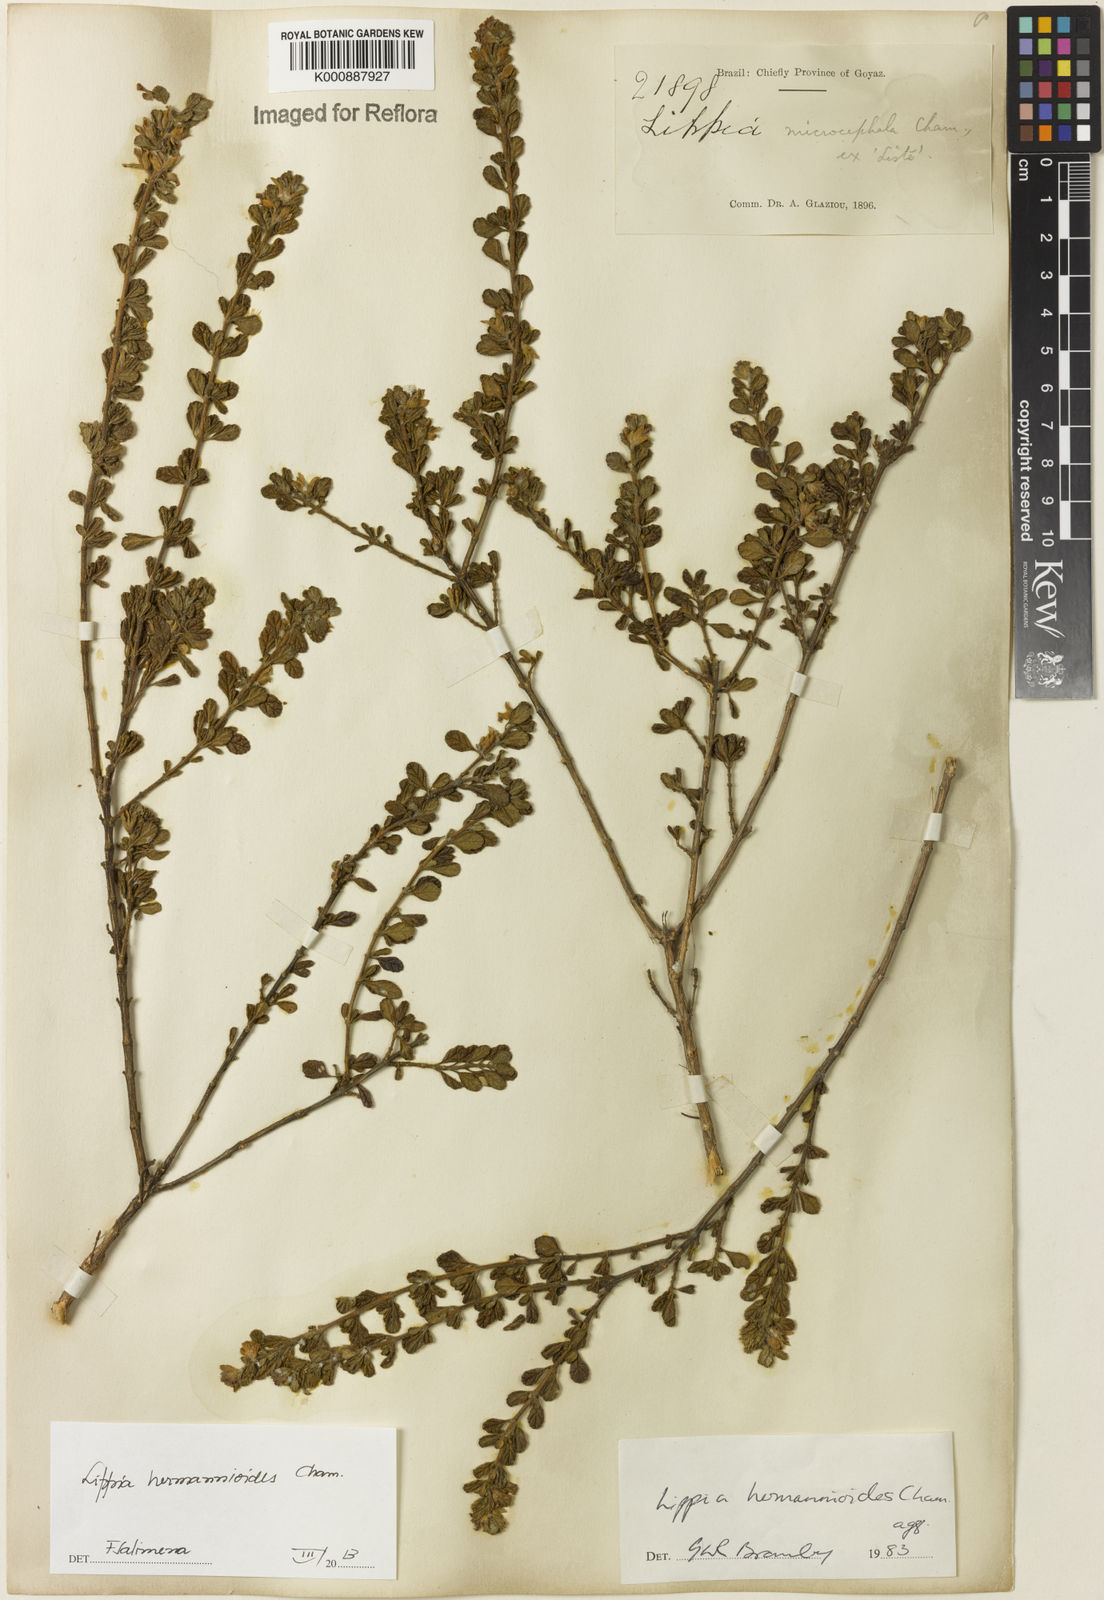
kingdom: Plantae
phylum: Tracheophyta
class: Magnoliopsida
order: Lamiales
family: Verbenaceae
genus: Lippia
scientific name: Lippia hermannioides
